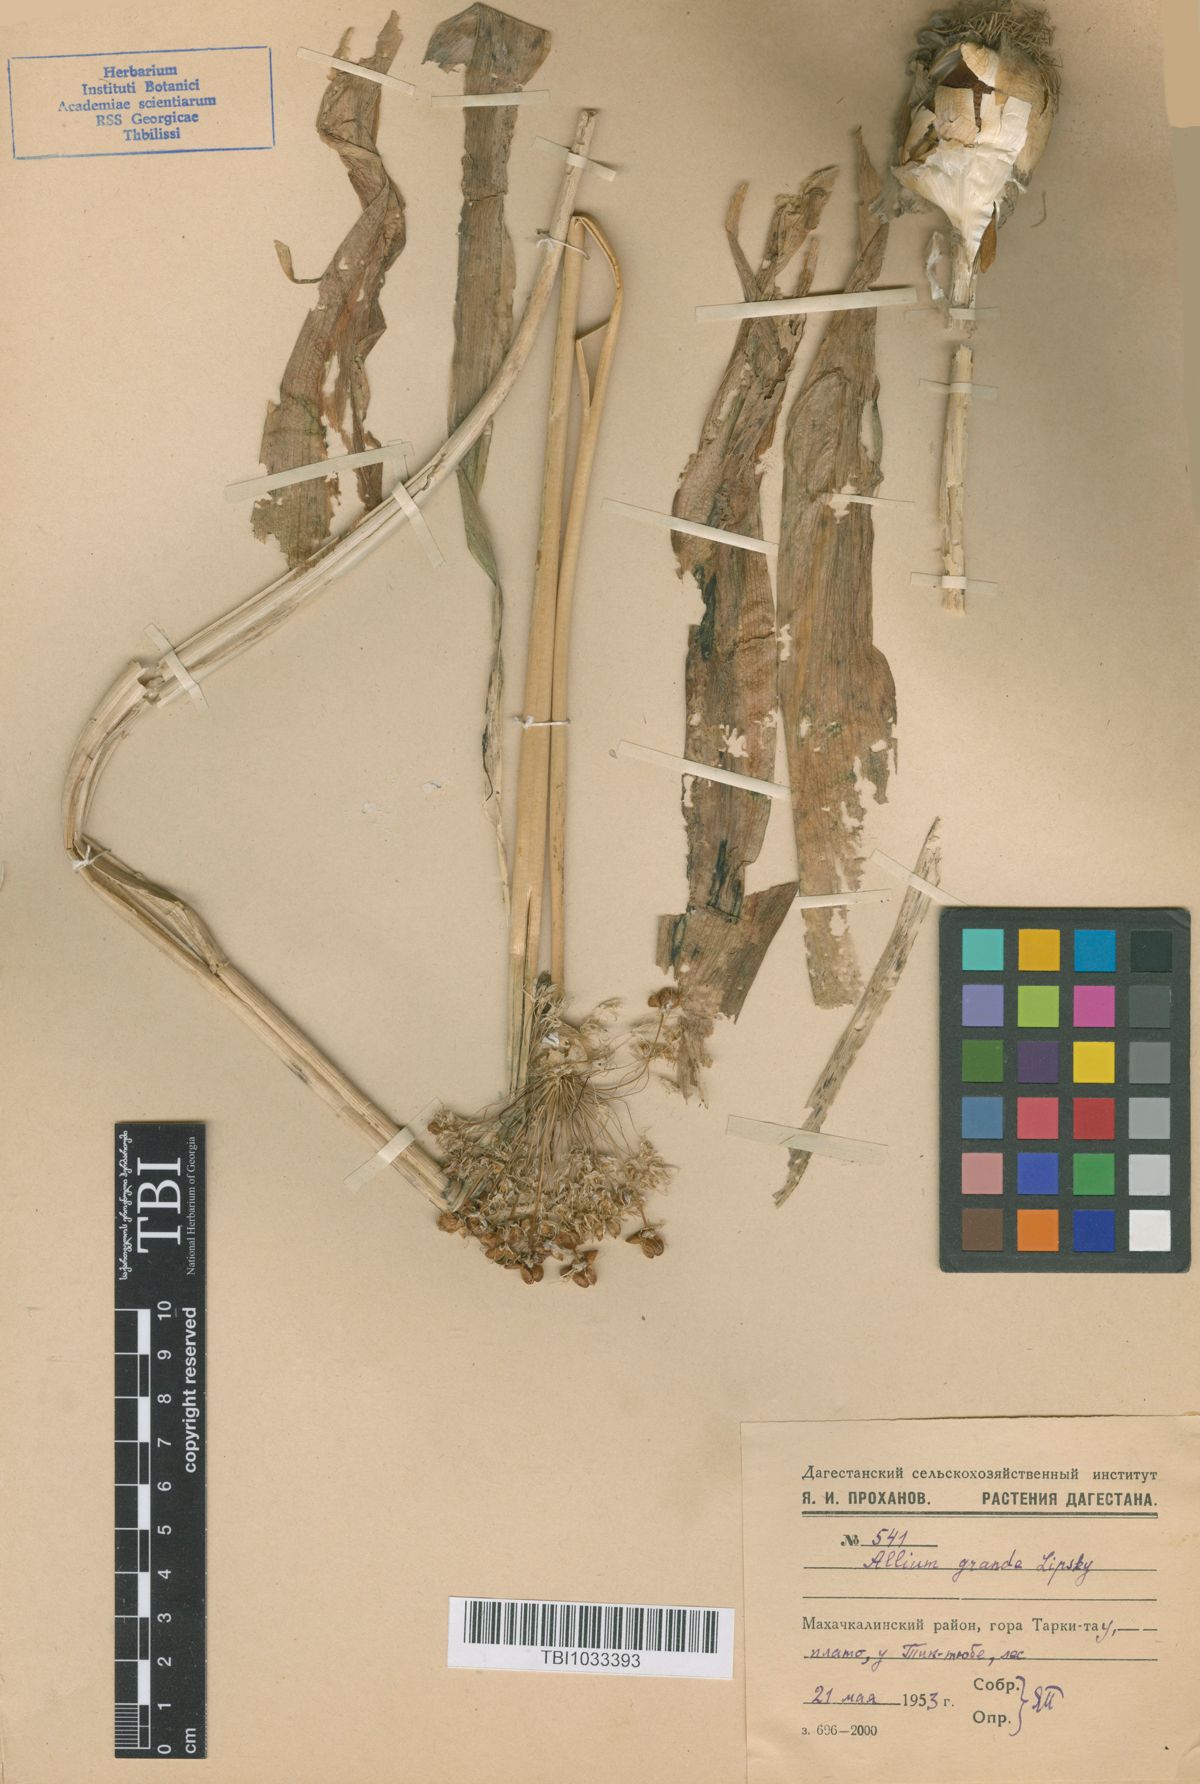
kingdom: Plantae
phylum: Tracheophyta
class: Liliopsida
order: Asparagales
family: Amaryllidaceae
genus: Allium
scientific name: Allium grande
